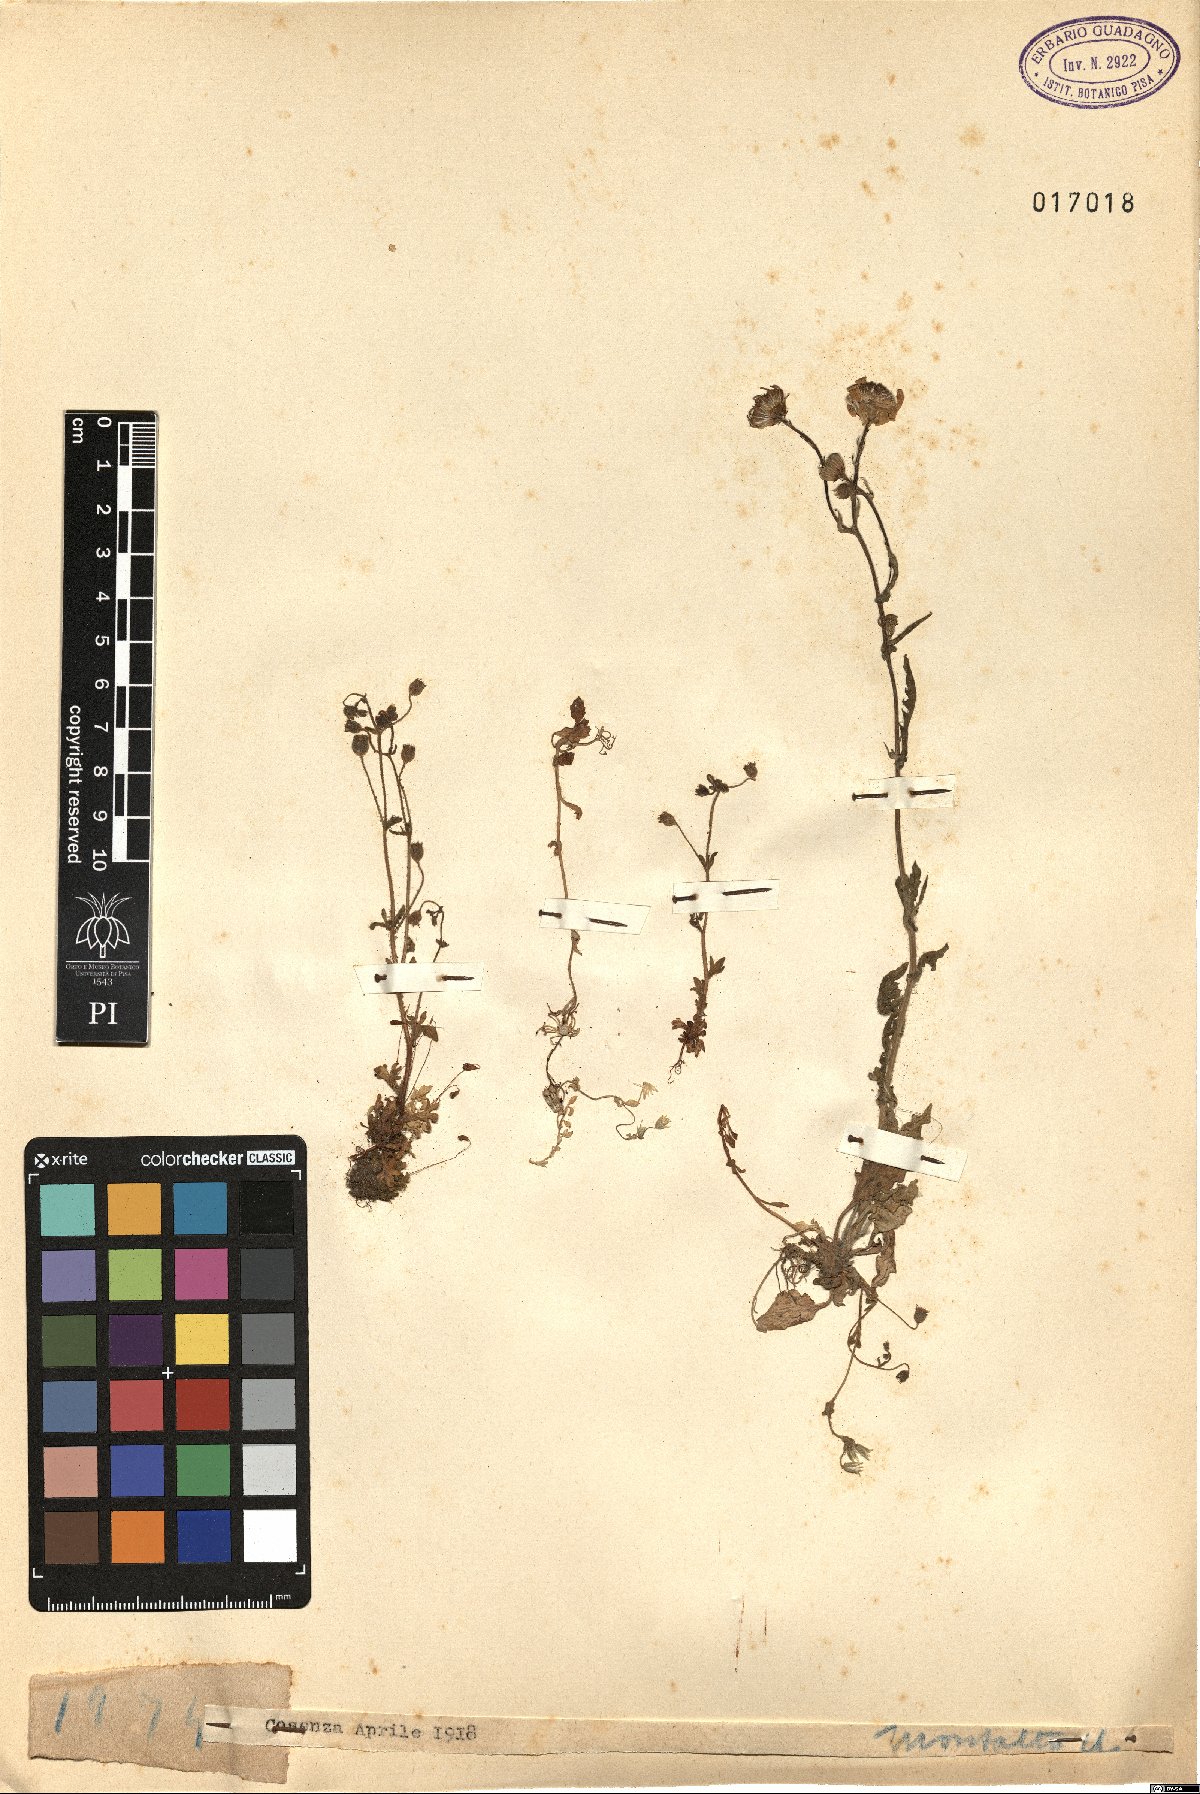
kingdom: Plantae
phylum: Tracheophyta
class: Magnoliopsida
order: Saxifragales
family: Saxifragaceae
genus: Saxifraga
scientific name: Saxifraga
